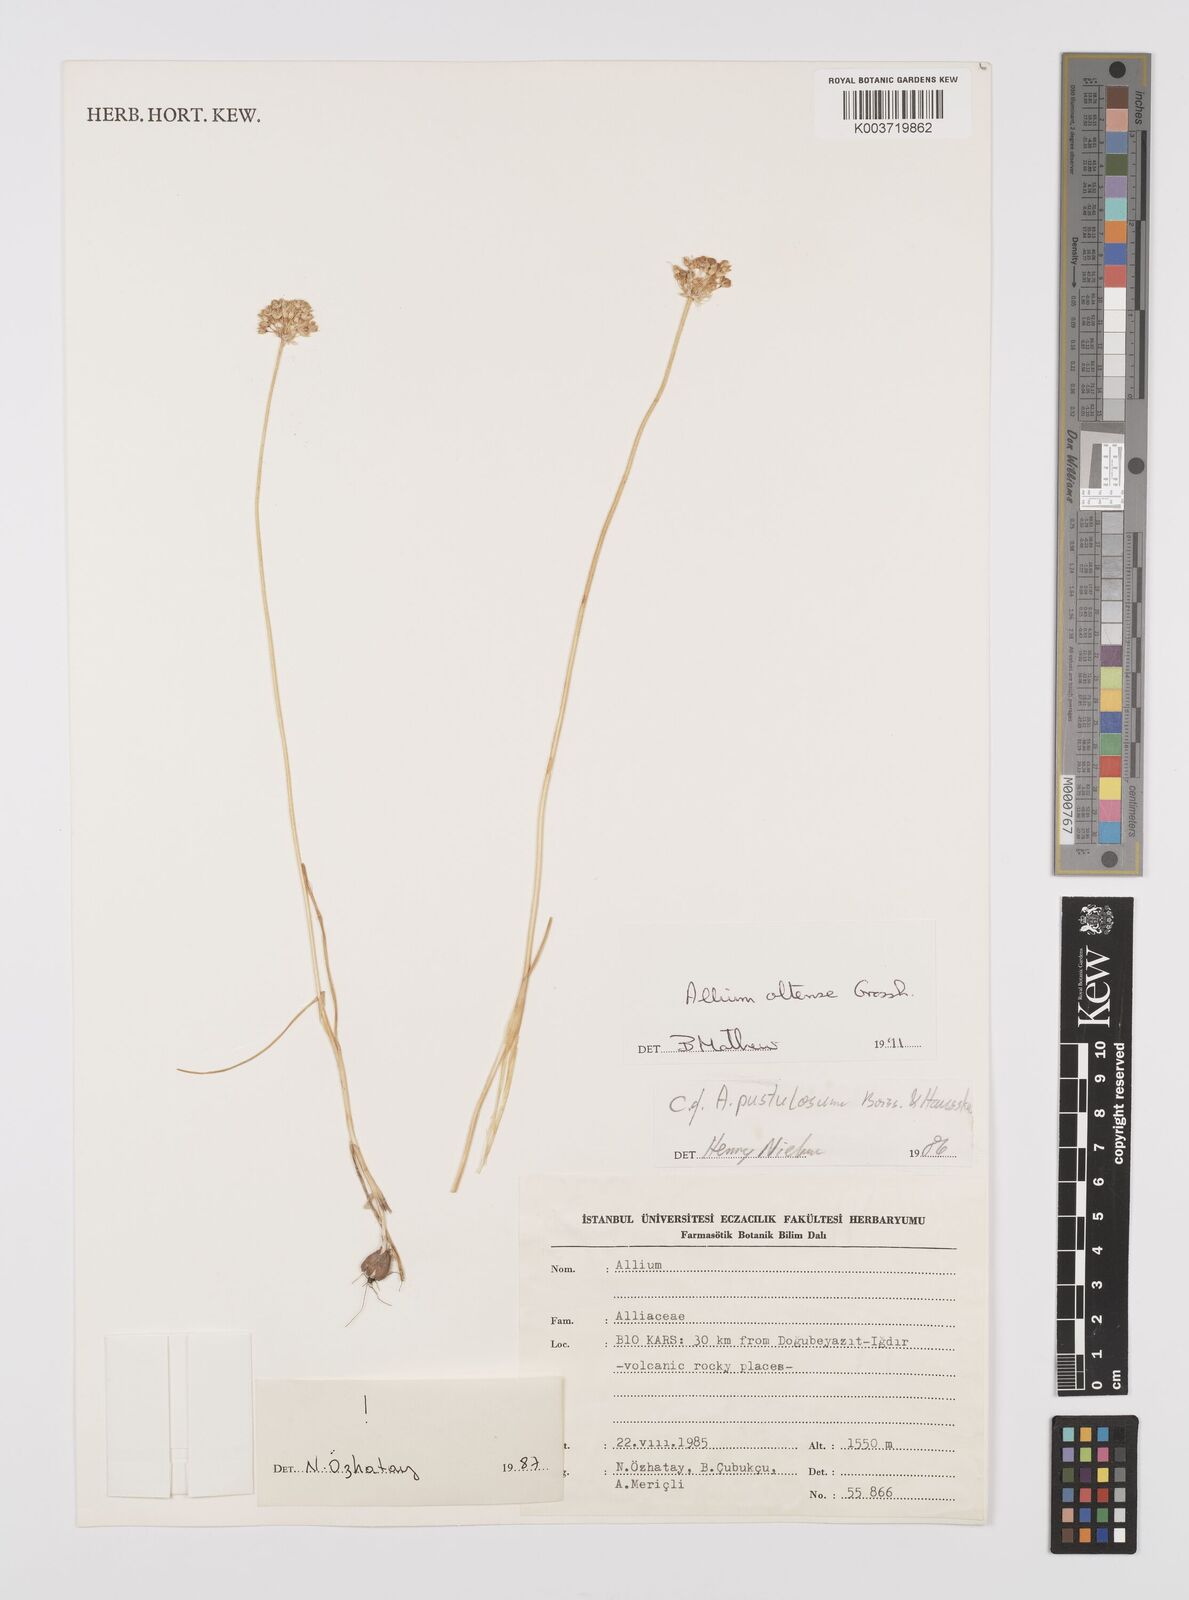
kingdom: Plantae
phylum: Tracheophyta
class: Liliopsida
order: Asparagales
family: Amaryllidaceae
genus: Allium
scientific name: Allium oltense
